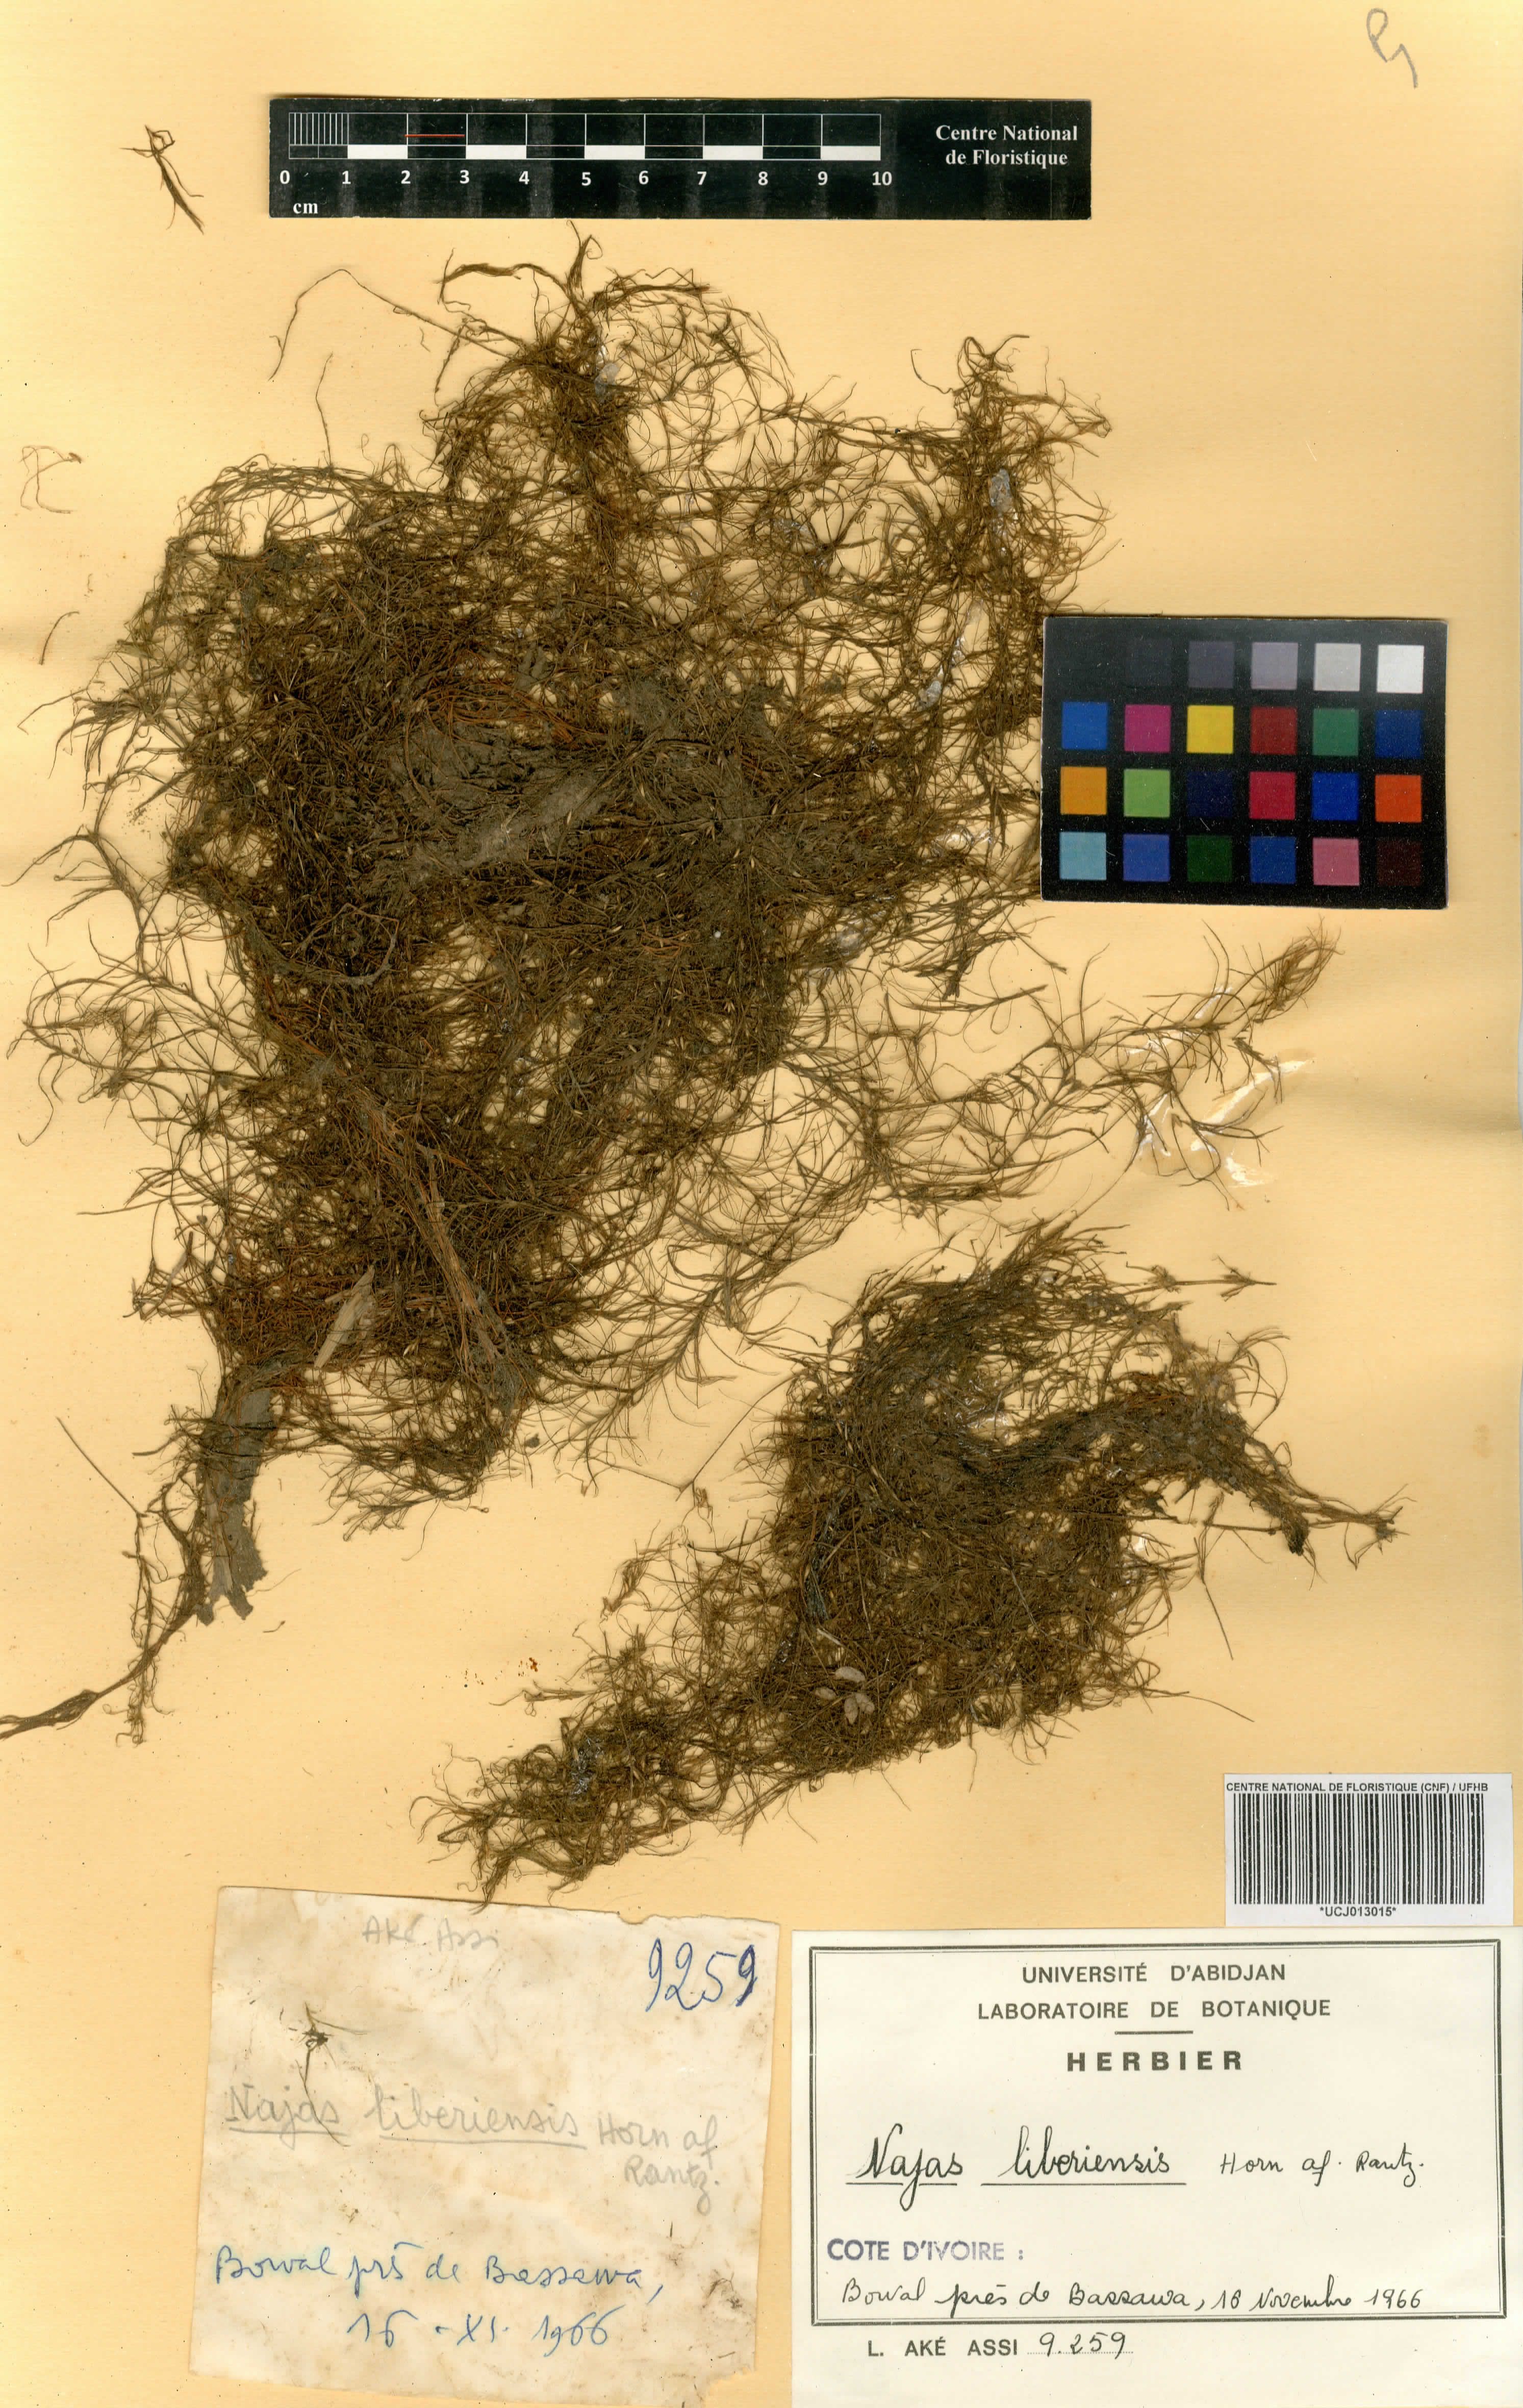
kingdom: Plantae
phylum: Tracheophyta
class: Liliopsida
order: Alismatales
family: Hydrocharitaceae
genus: Najas
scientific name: Najas baldwinii
